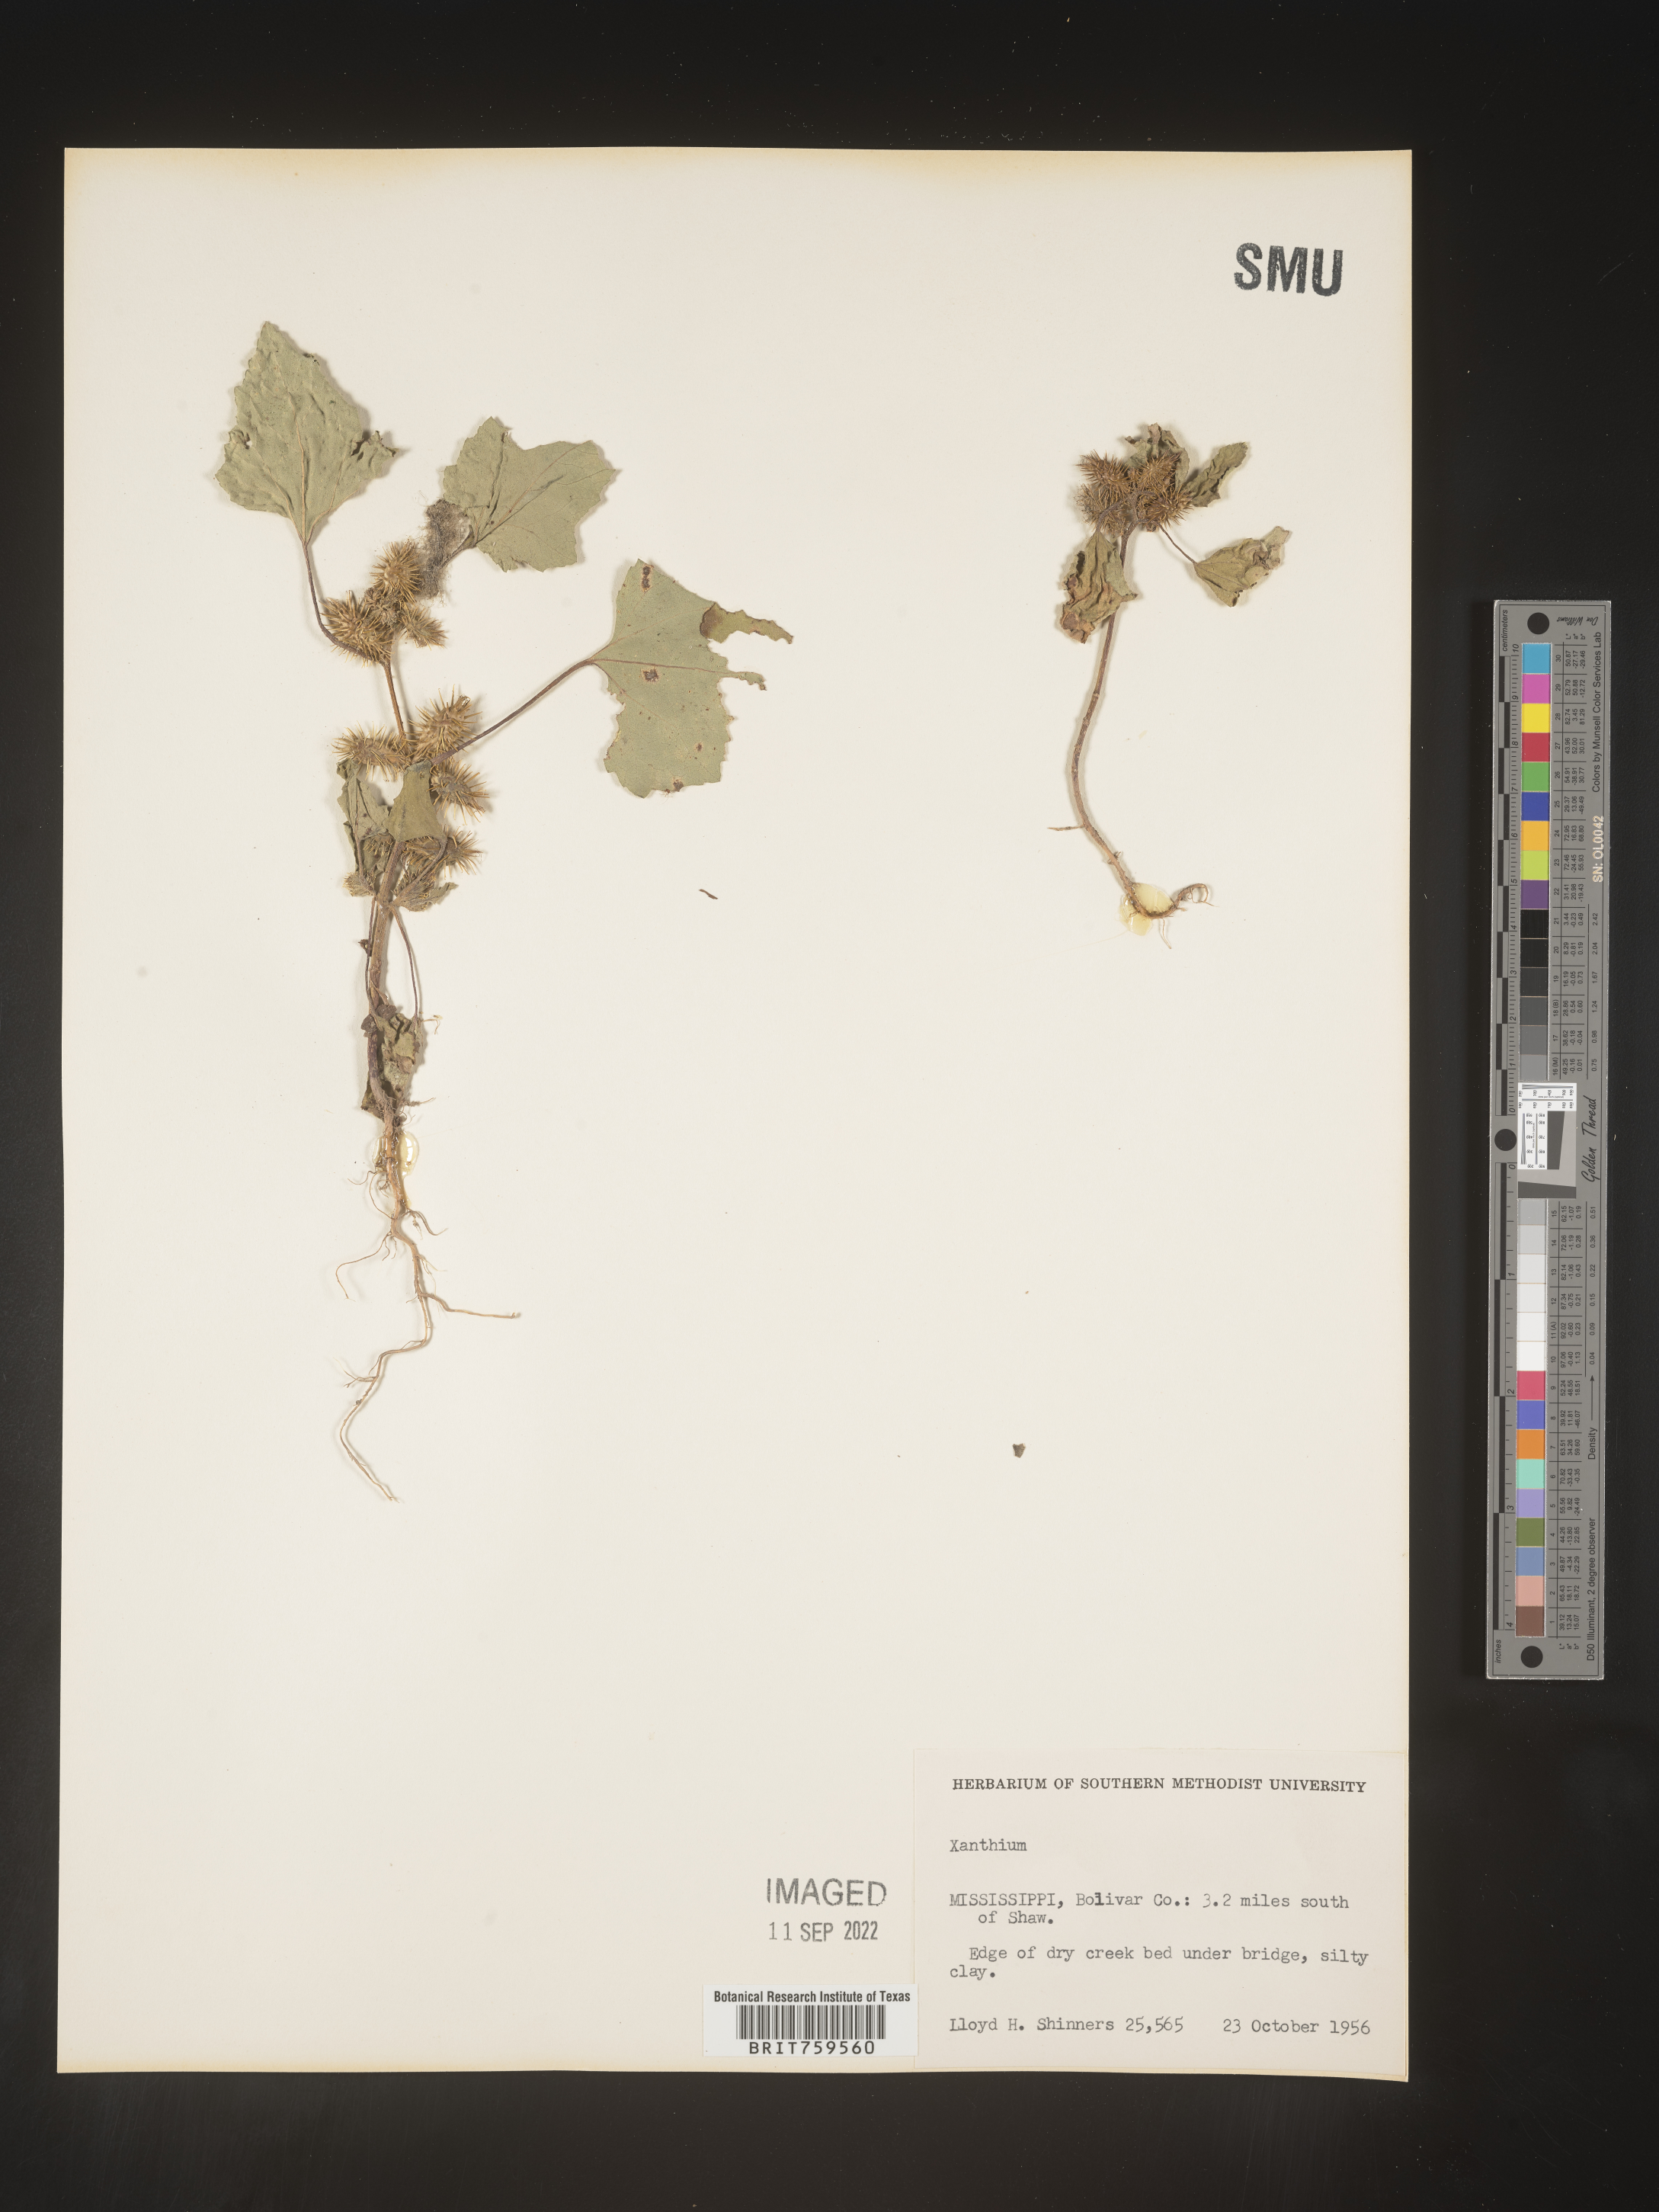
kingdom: Plantae
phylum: Tracheophyta
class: Magnoliopsida
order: Asterales
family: Asteraceae
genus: Xanthium
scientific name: Xanthium
